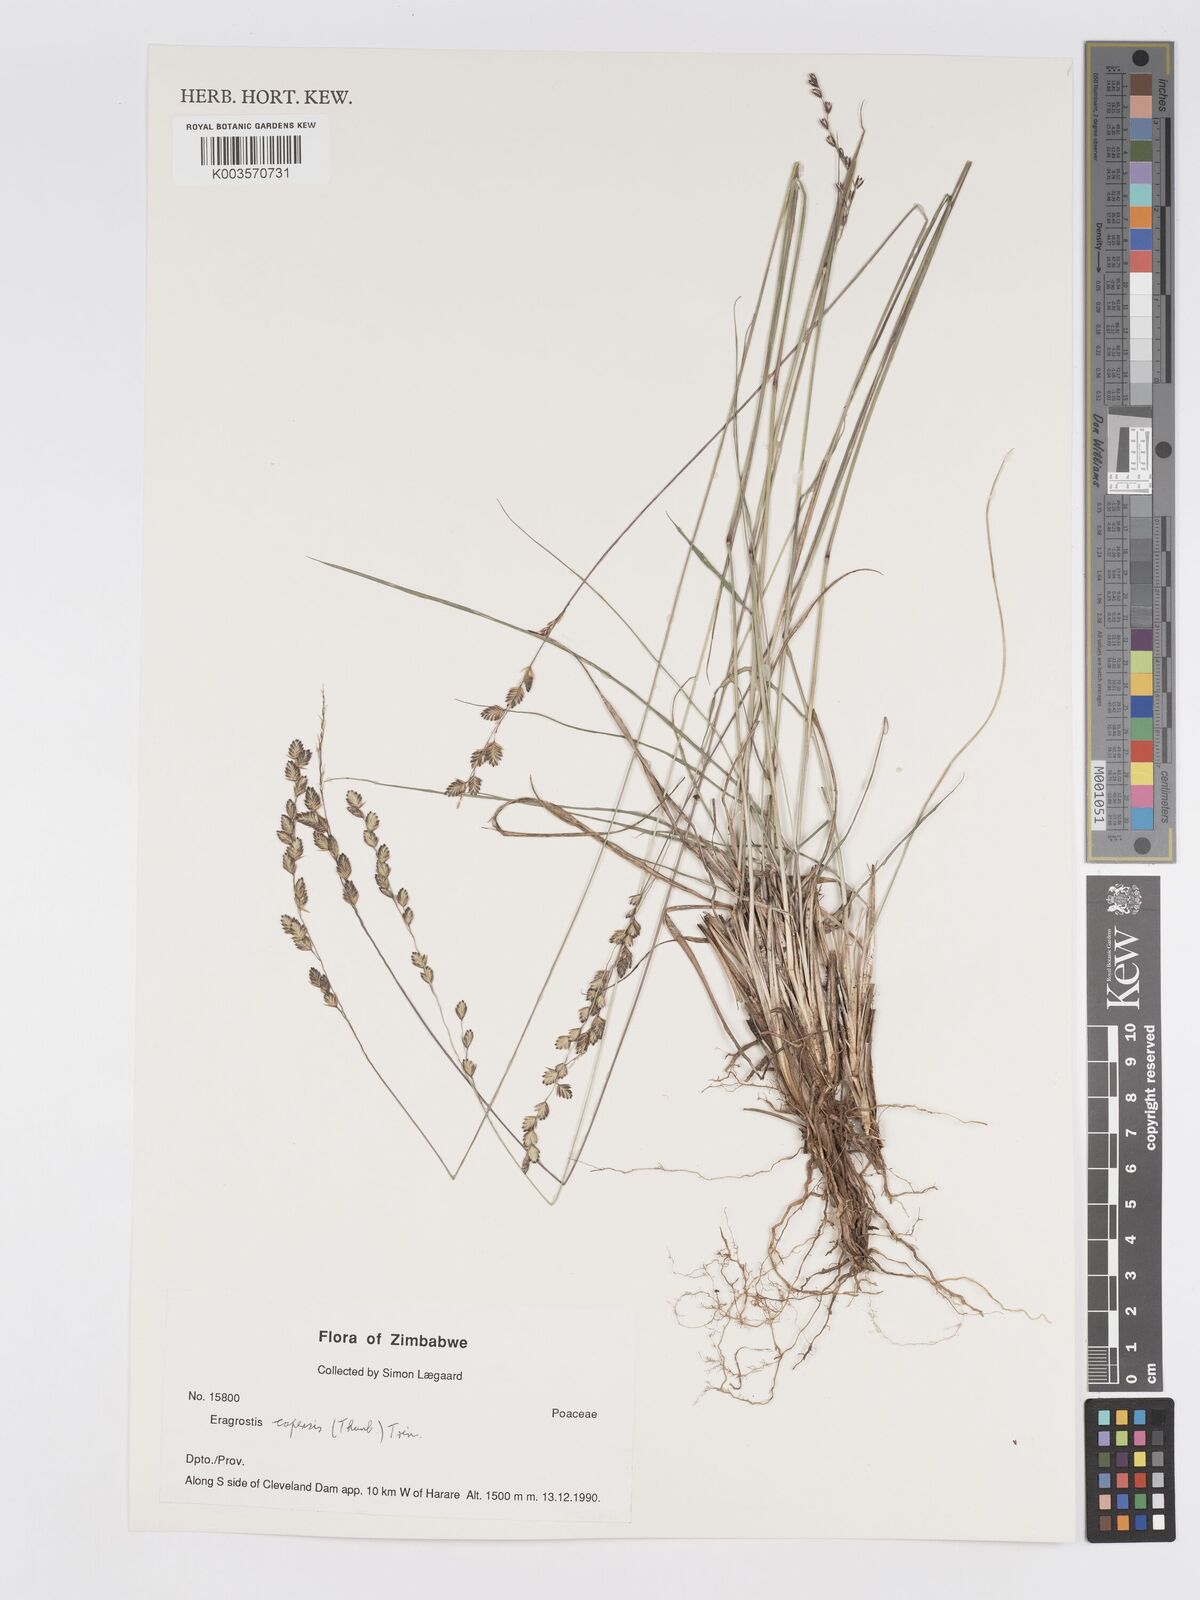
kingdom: Plantae
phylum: Tracheophyta
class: Liliopsida
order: Poales
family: Poaceae
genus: Eragrostis
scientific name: Eragrostis capensis
